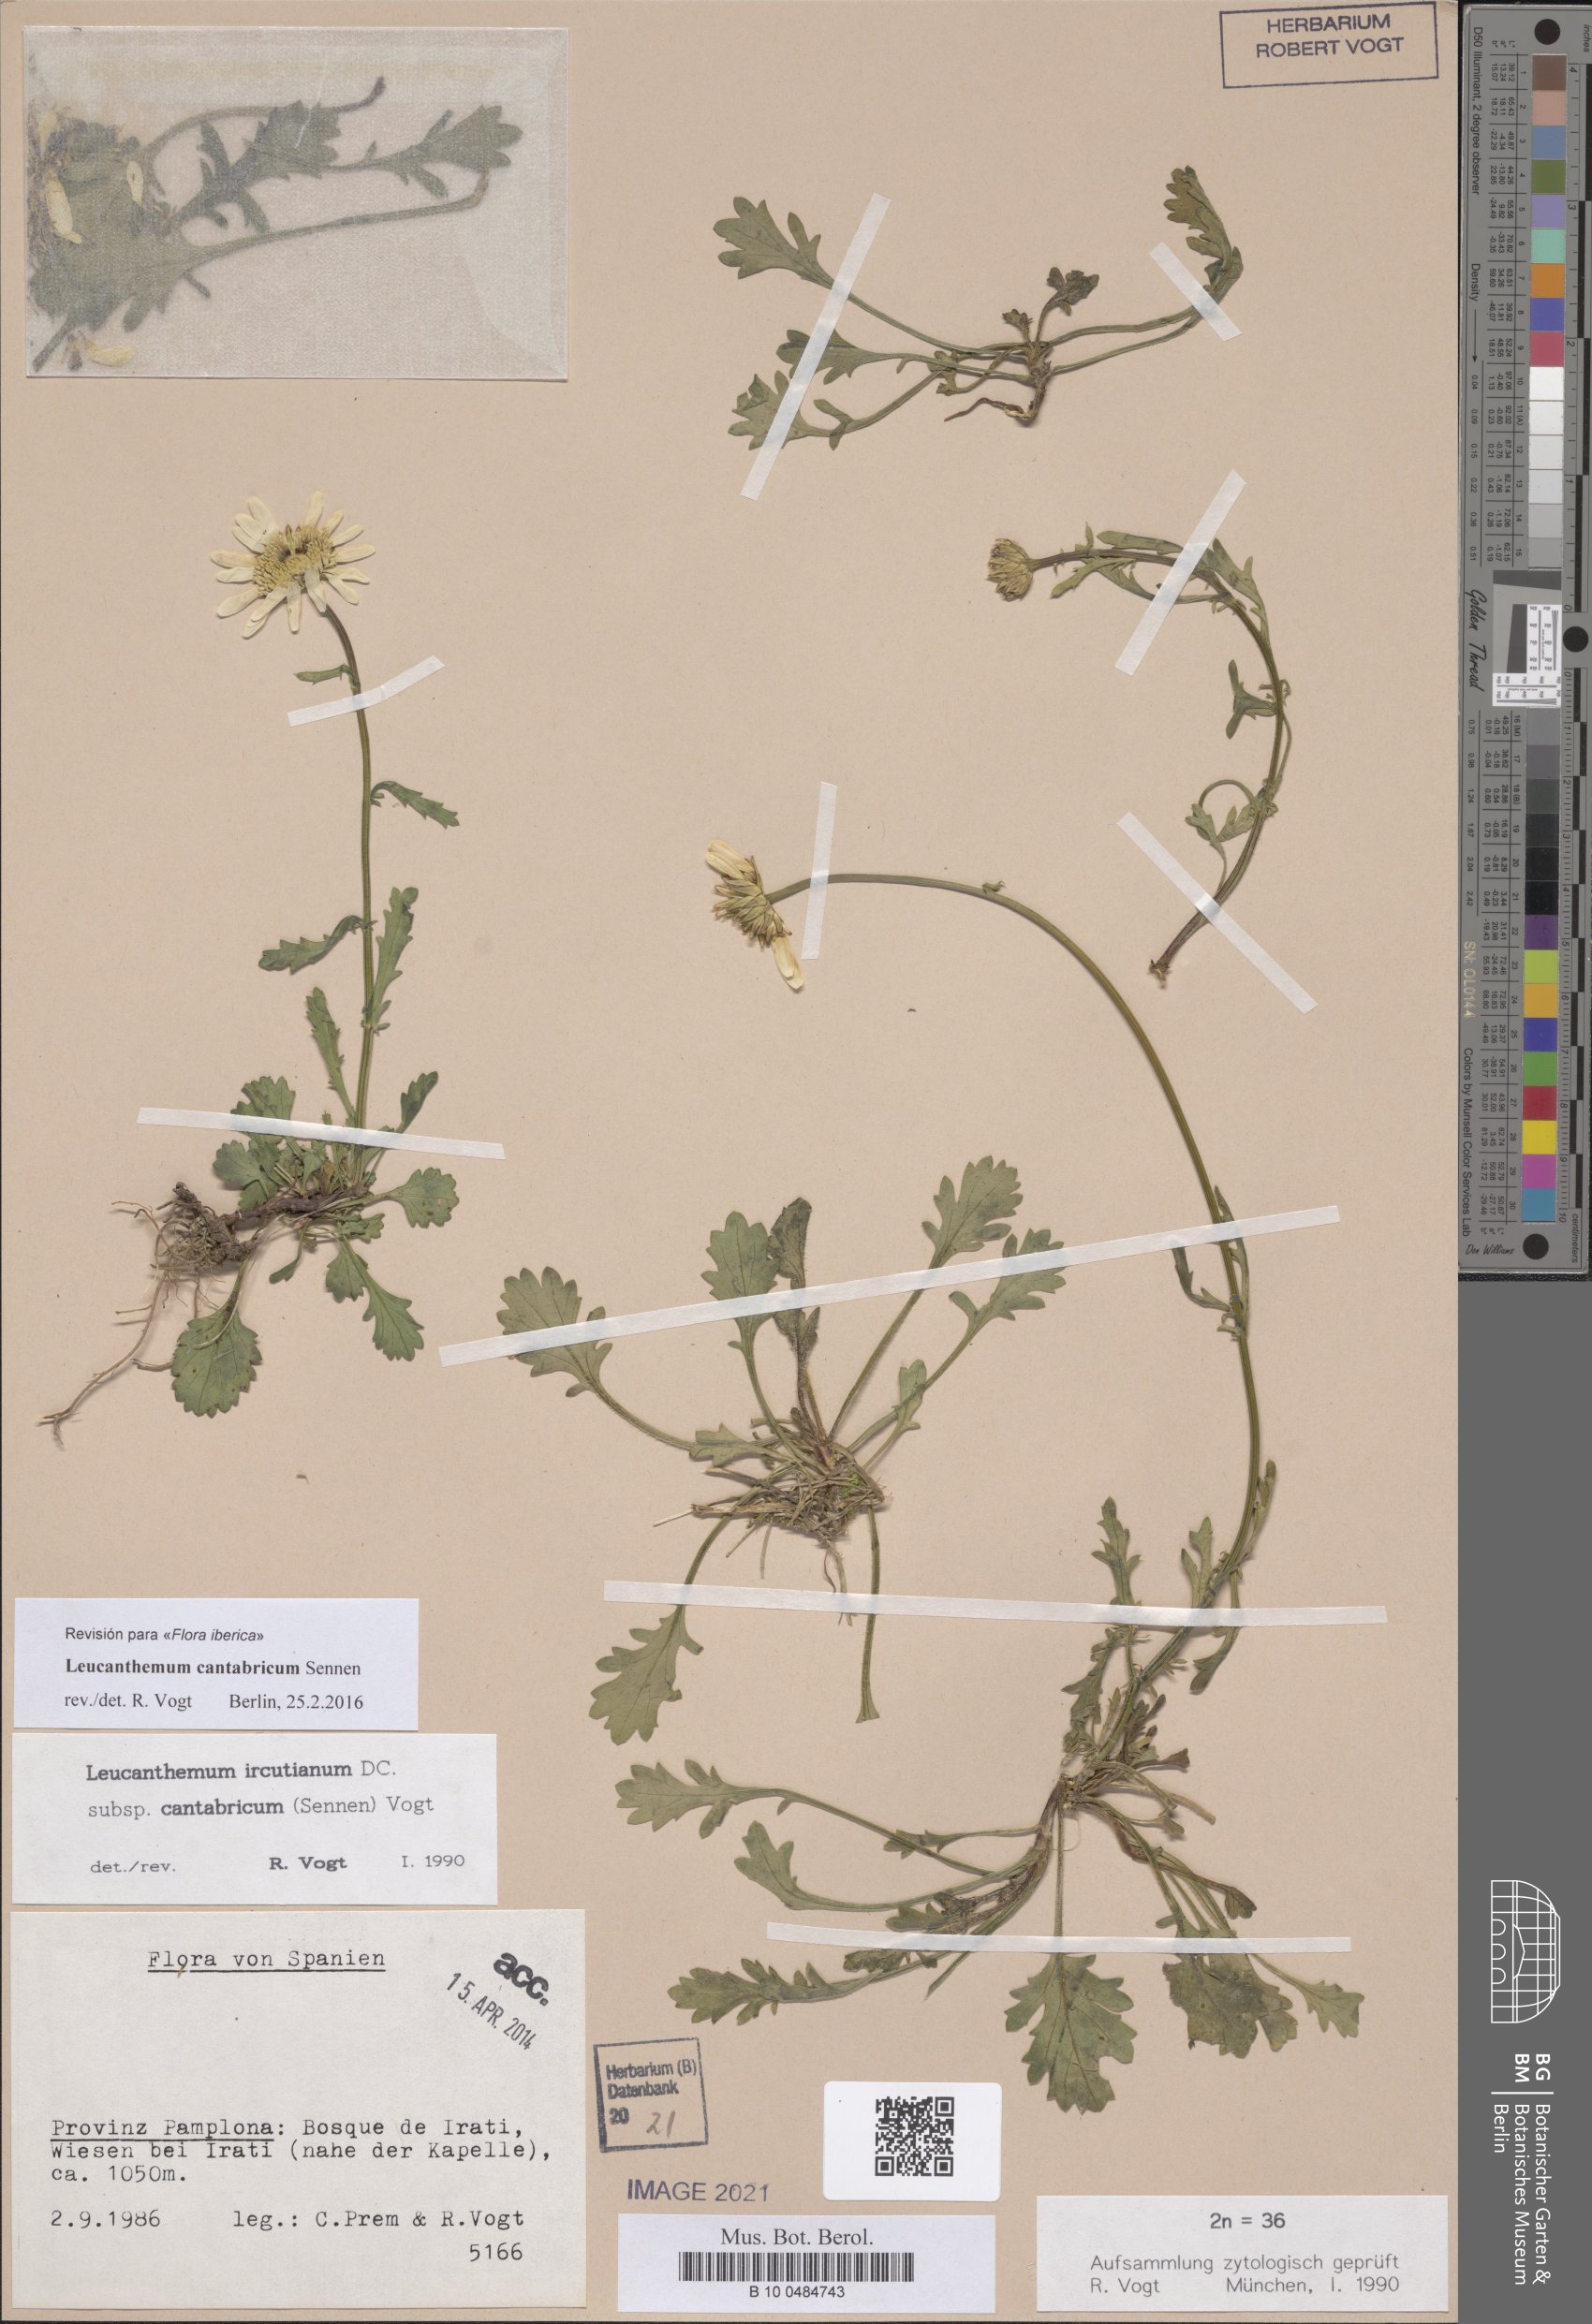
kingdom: Plantae
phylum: Tracheophyta
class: Magnoliopsida
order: Asterales
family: Asteraceae
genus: Leucanthemum
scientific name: Leucanthemum cantabricum
